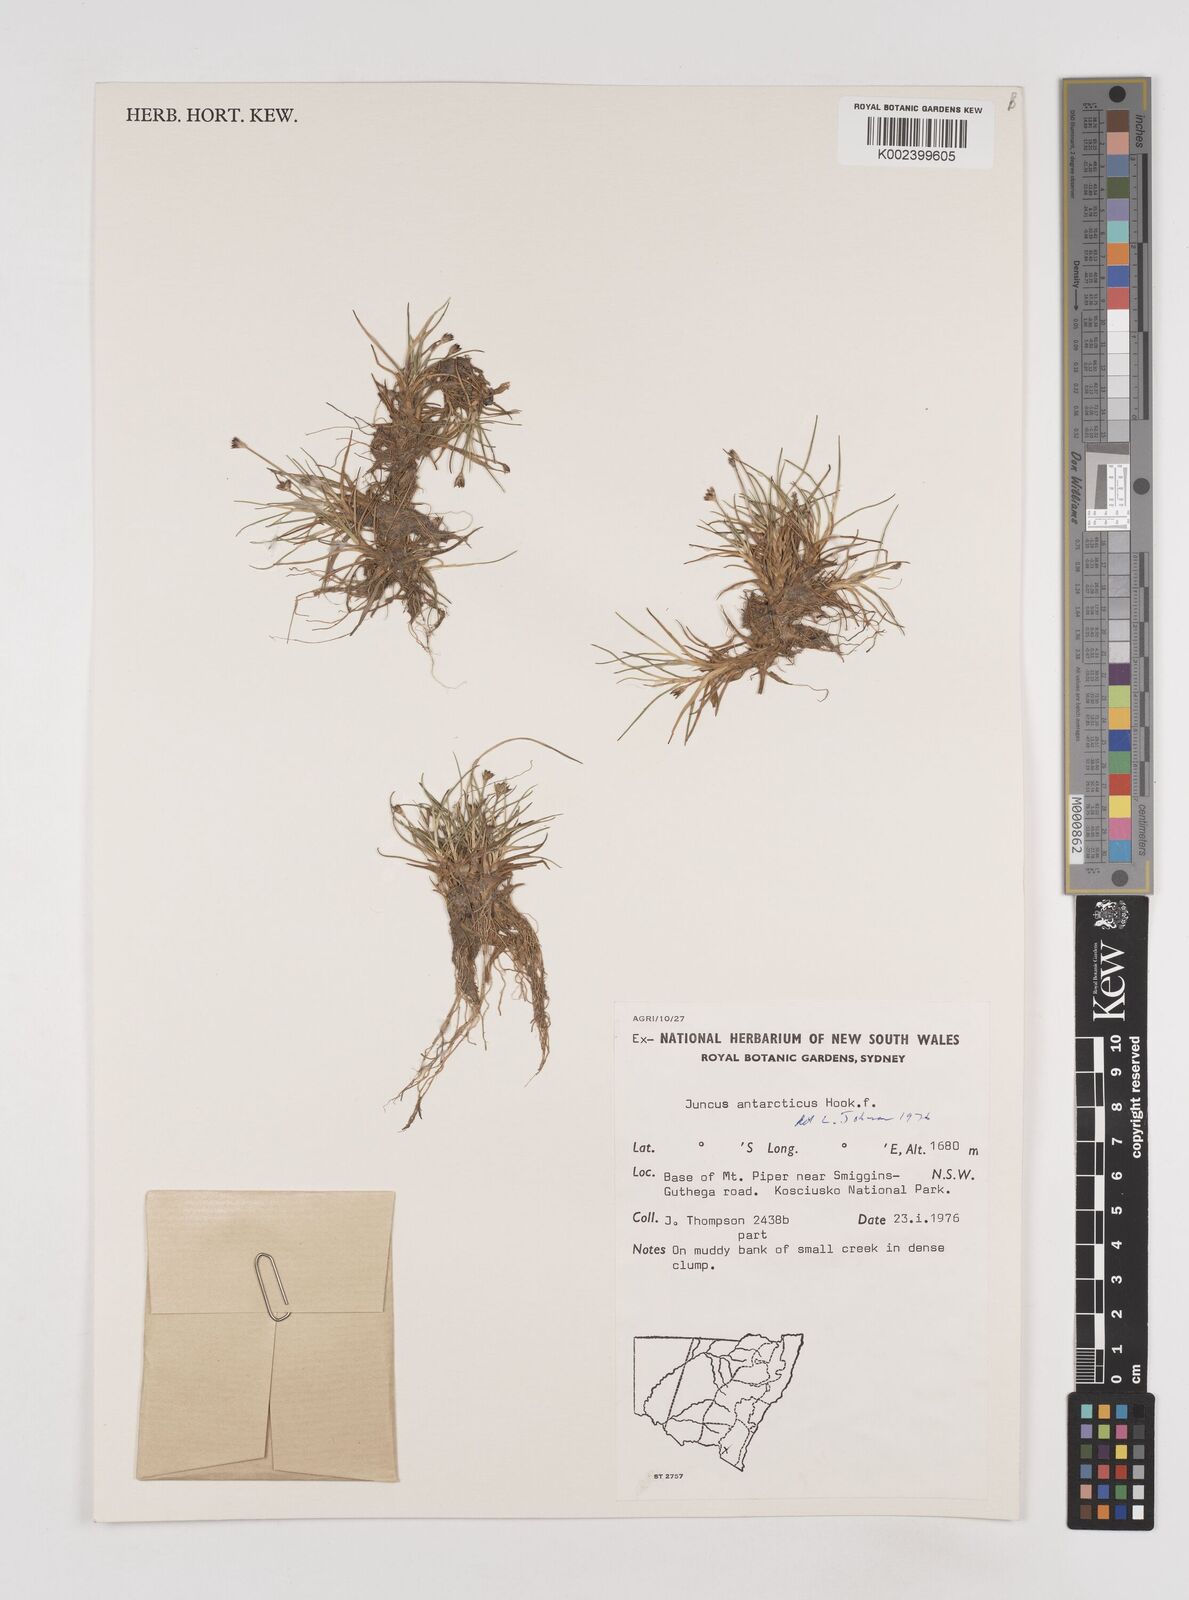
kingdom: Plantae
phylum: Tracheophyta
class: Liliopsida
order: Poales
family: Juncaceae
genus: Juncus
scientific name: Juncus antarcticus
